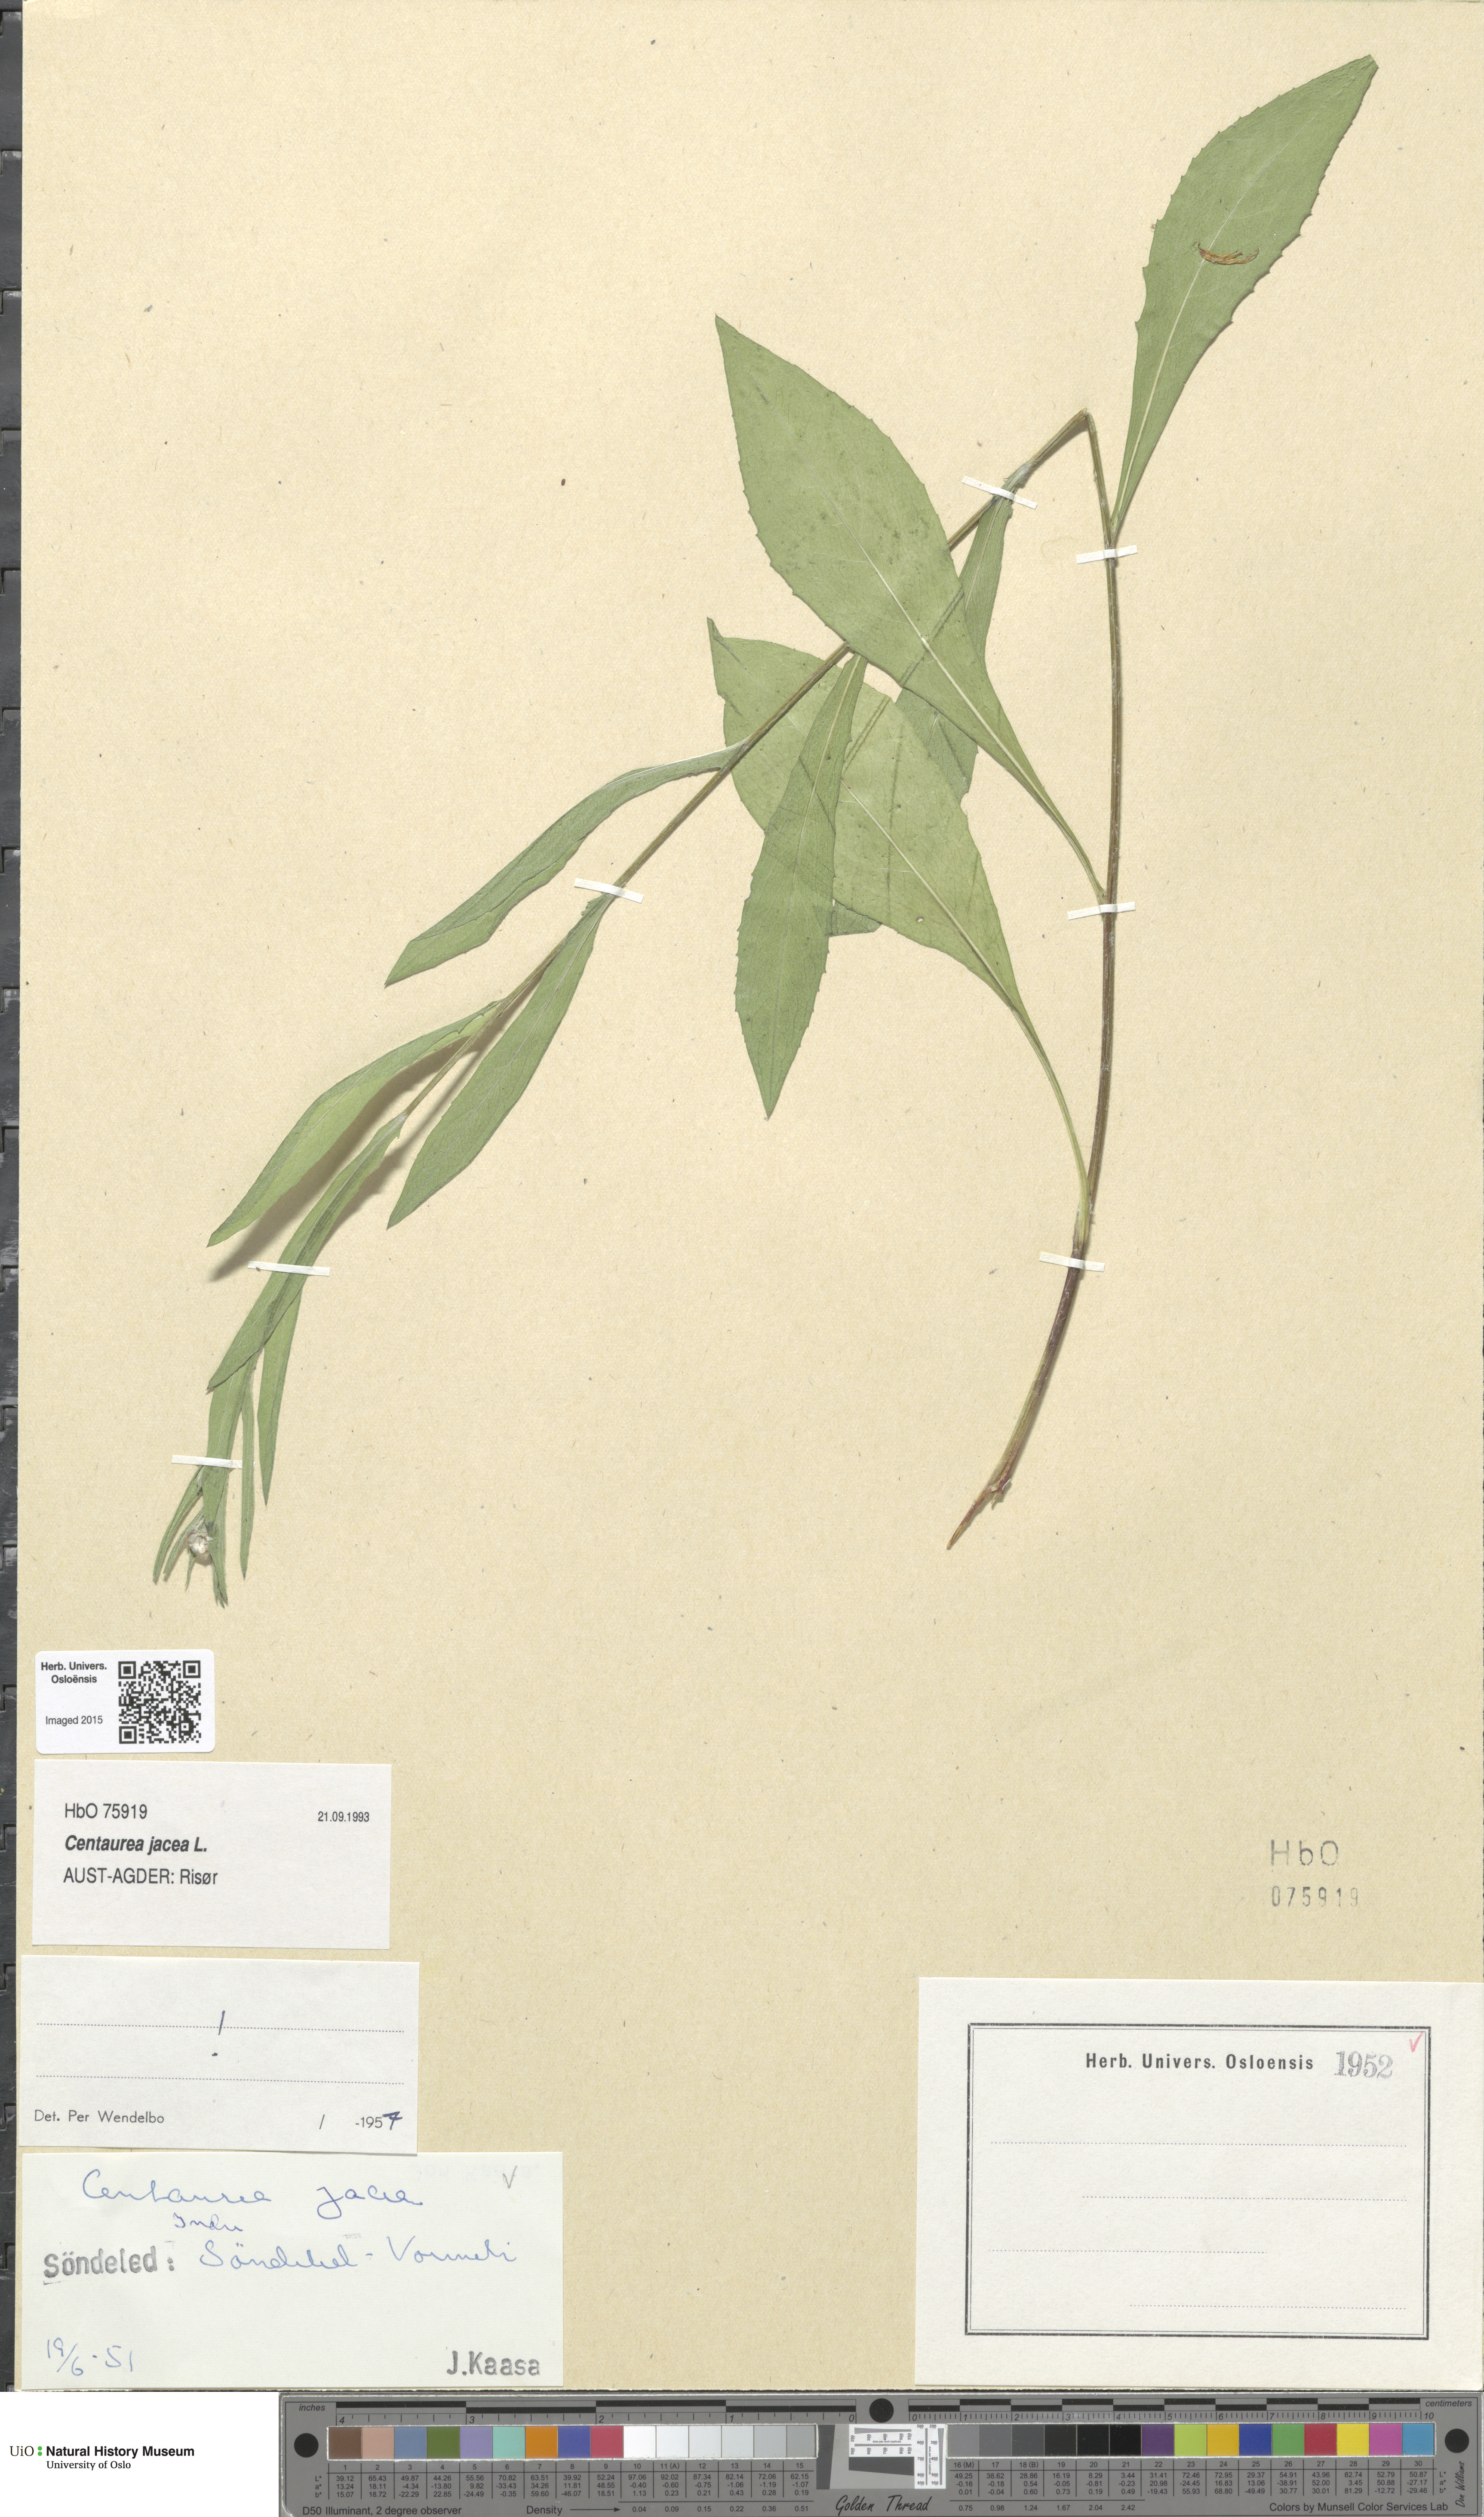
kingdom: Plantae
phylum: Tracheophyta
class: Magnoliopsida
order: Asterales
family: Asteraceae
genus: Centaurea
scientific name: Centaurea jacea
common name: Brown knapweed
